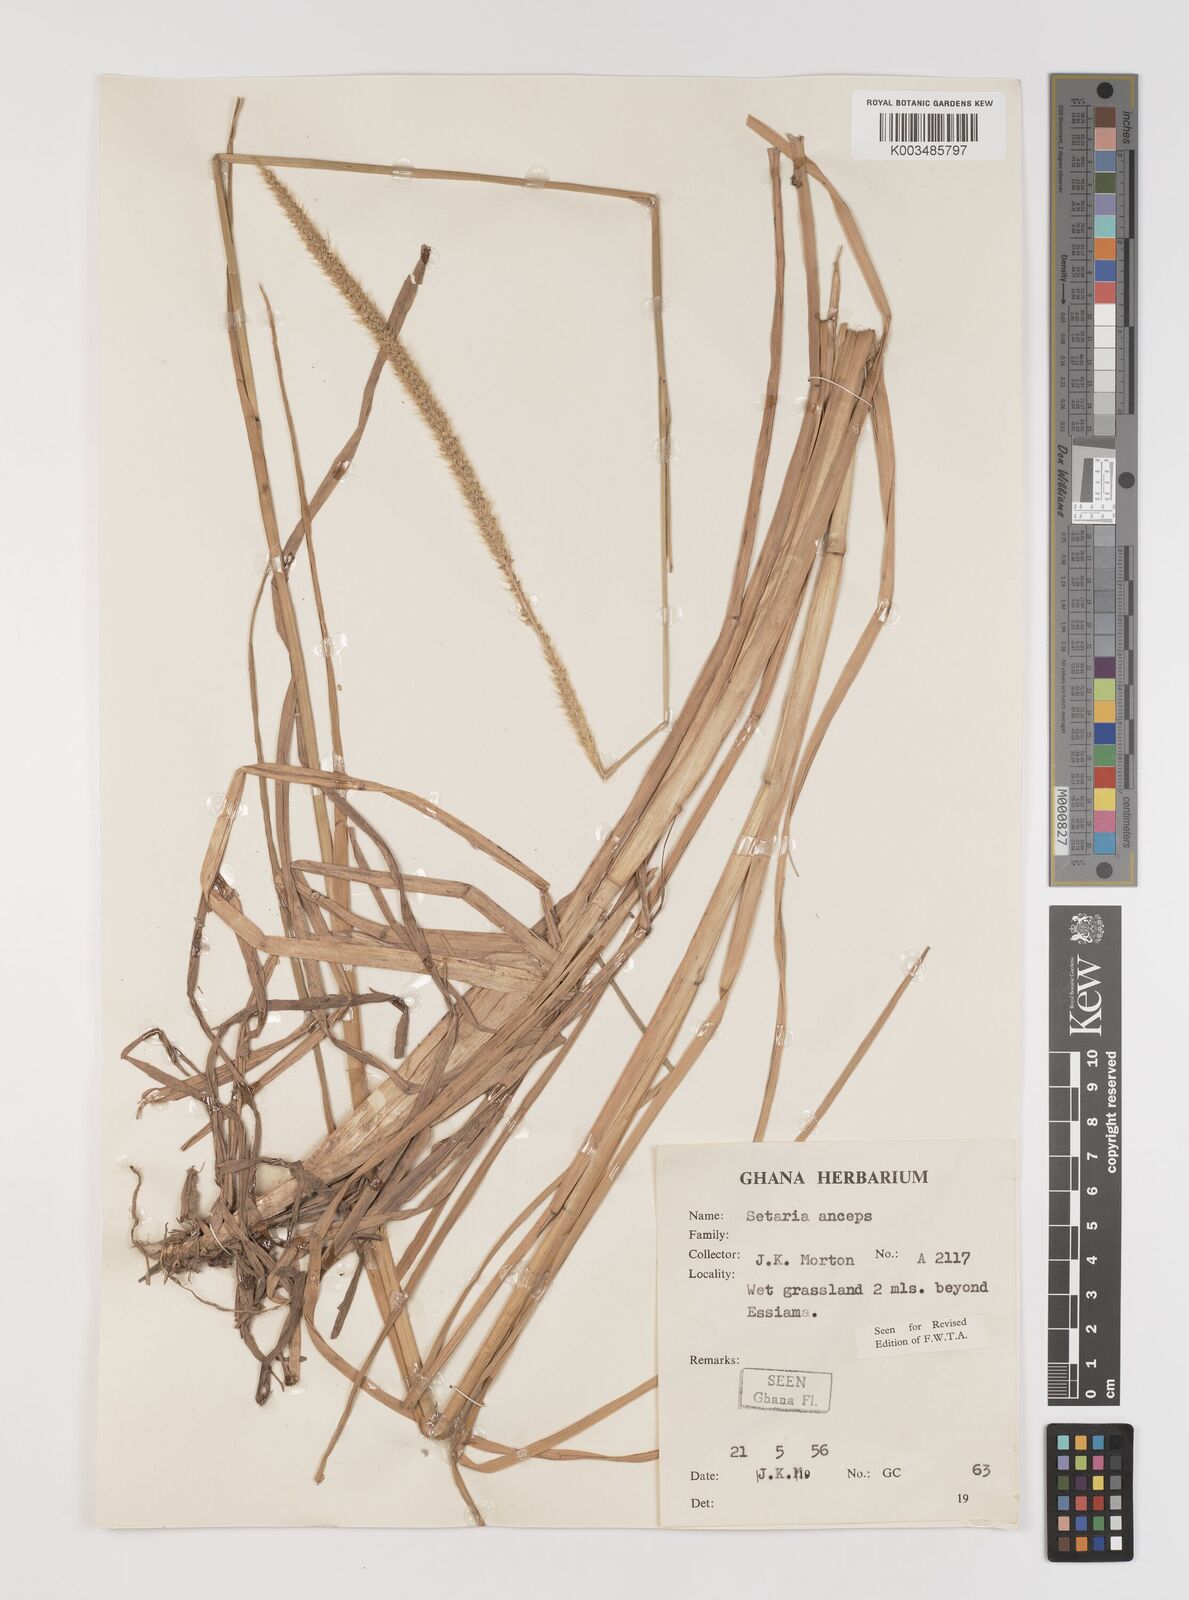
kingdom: Plantae
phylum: Tracheophyta
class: Liliopsida
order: Poales
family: Poaceae
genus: Setaria
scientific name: Setaria sphacelata
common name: African bristlegrass
